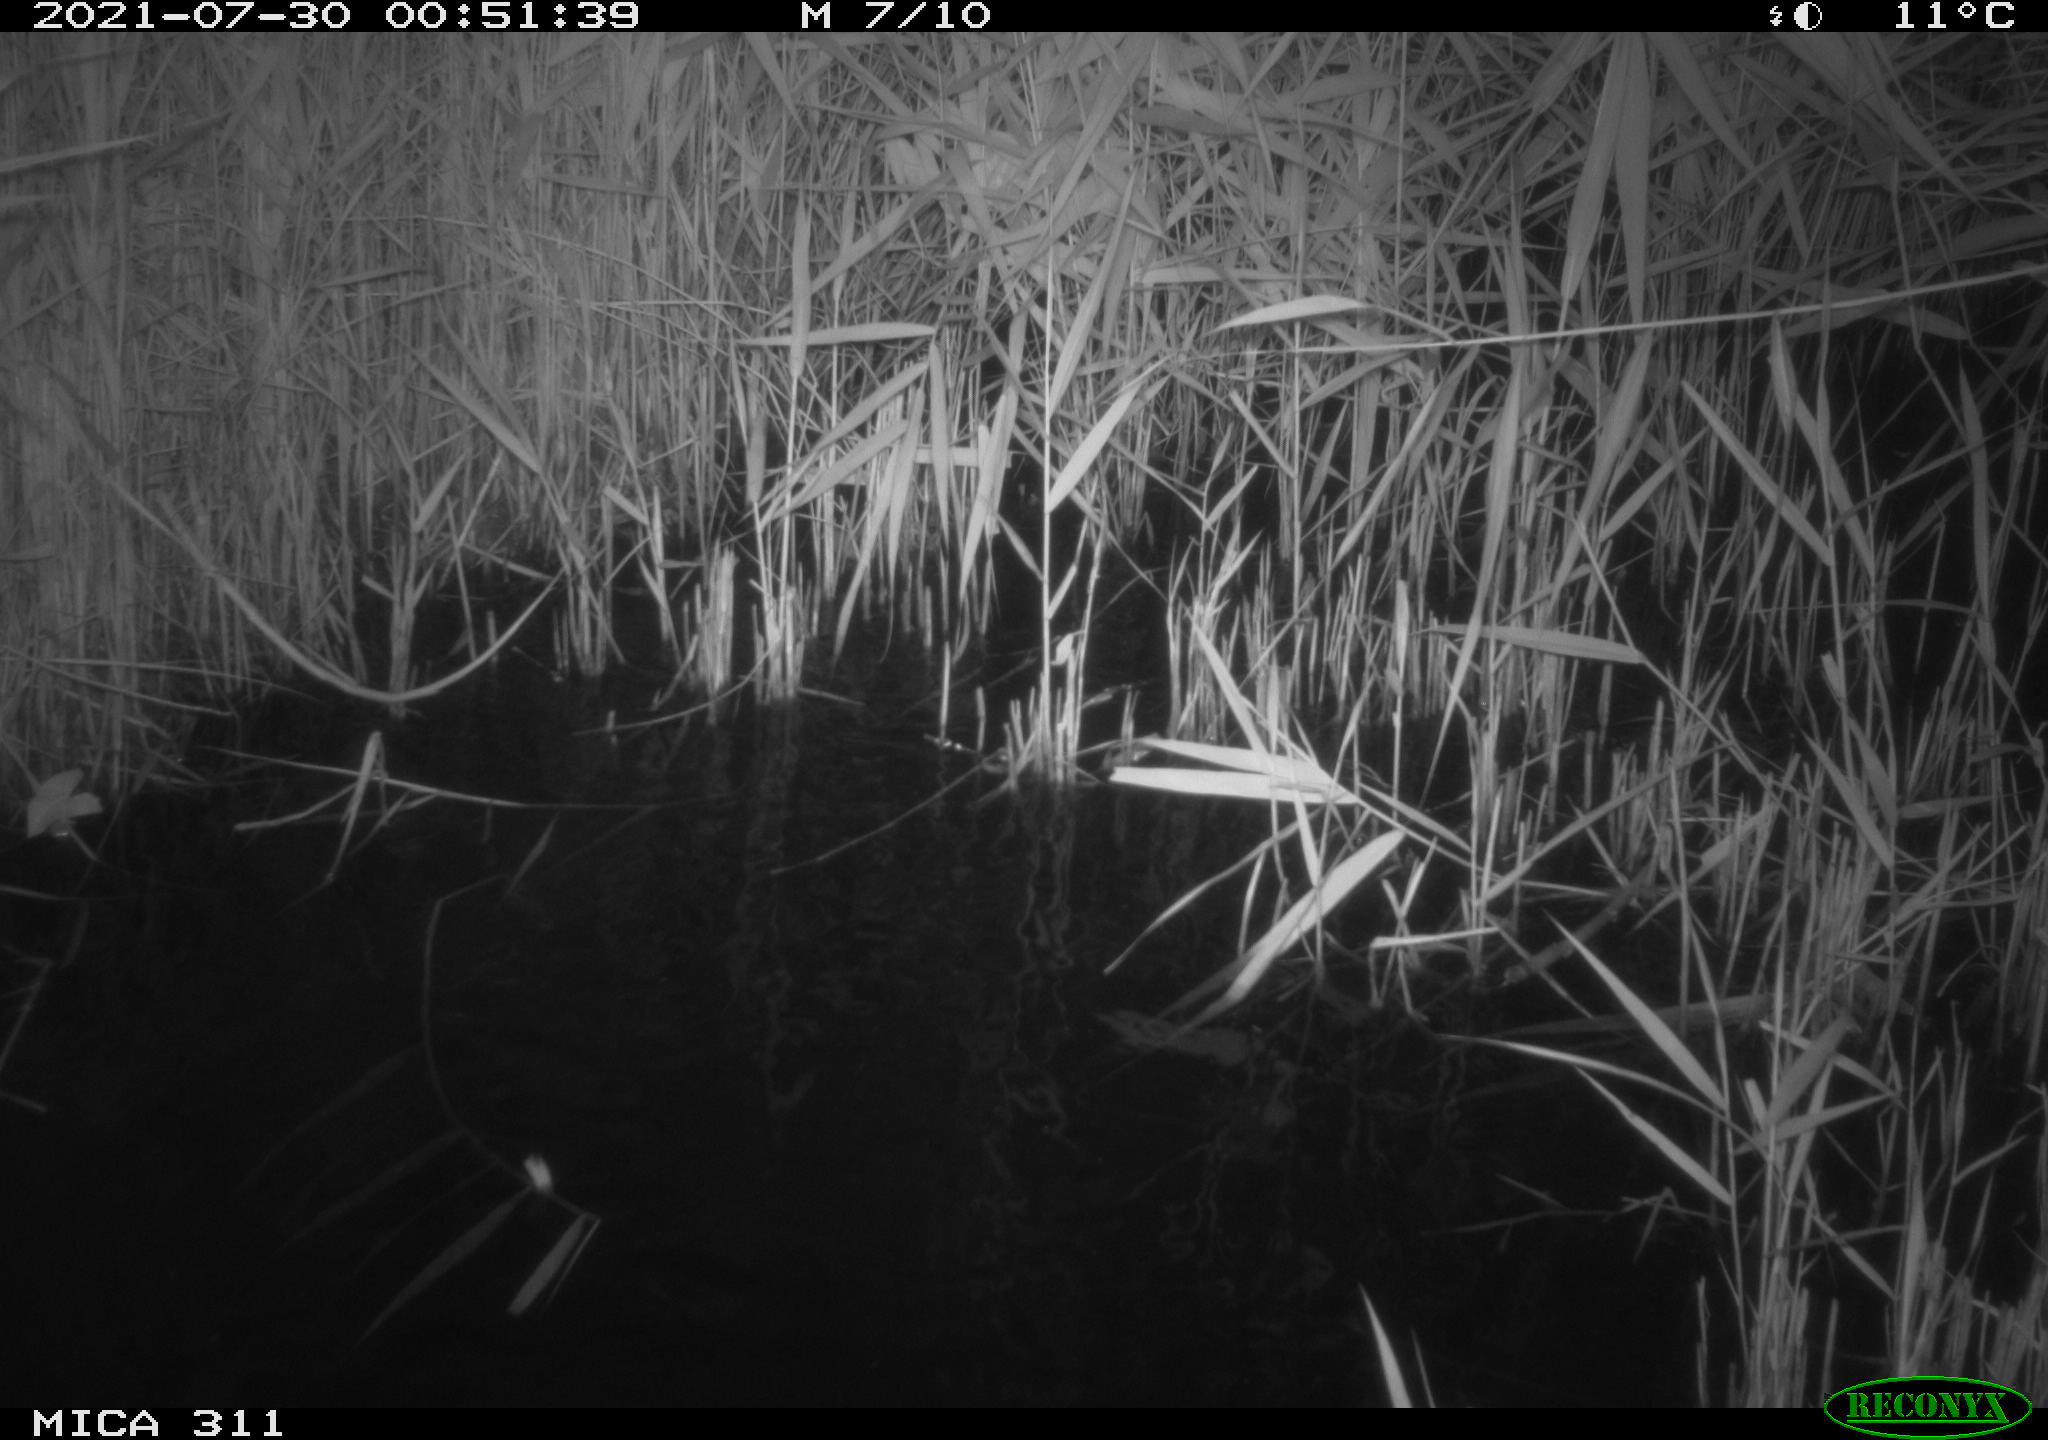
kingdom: Animalia
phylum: Chordata
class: Mammalia
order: Rodentia
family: Muridae
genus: Rattus
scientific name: Rattus norvegicus
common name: Brown rat
